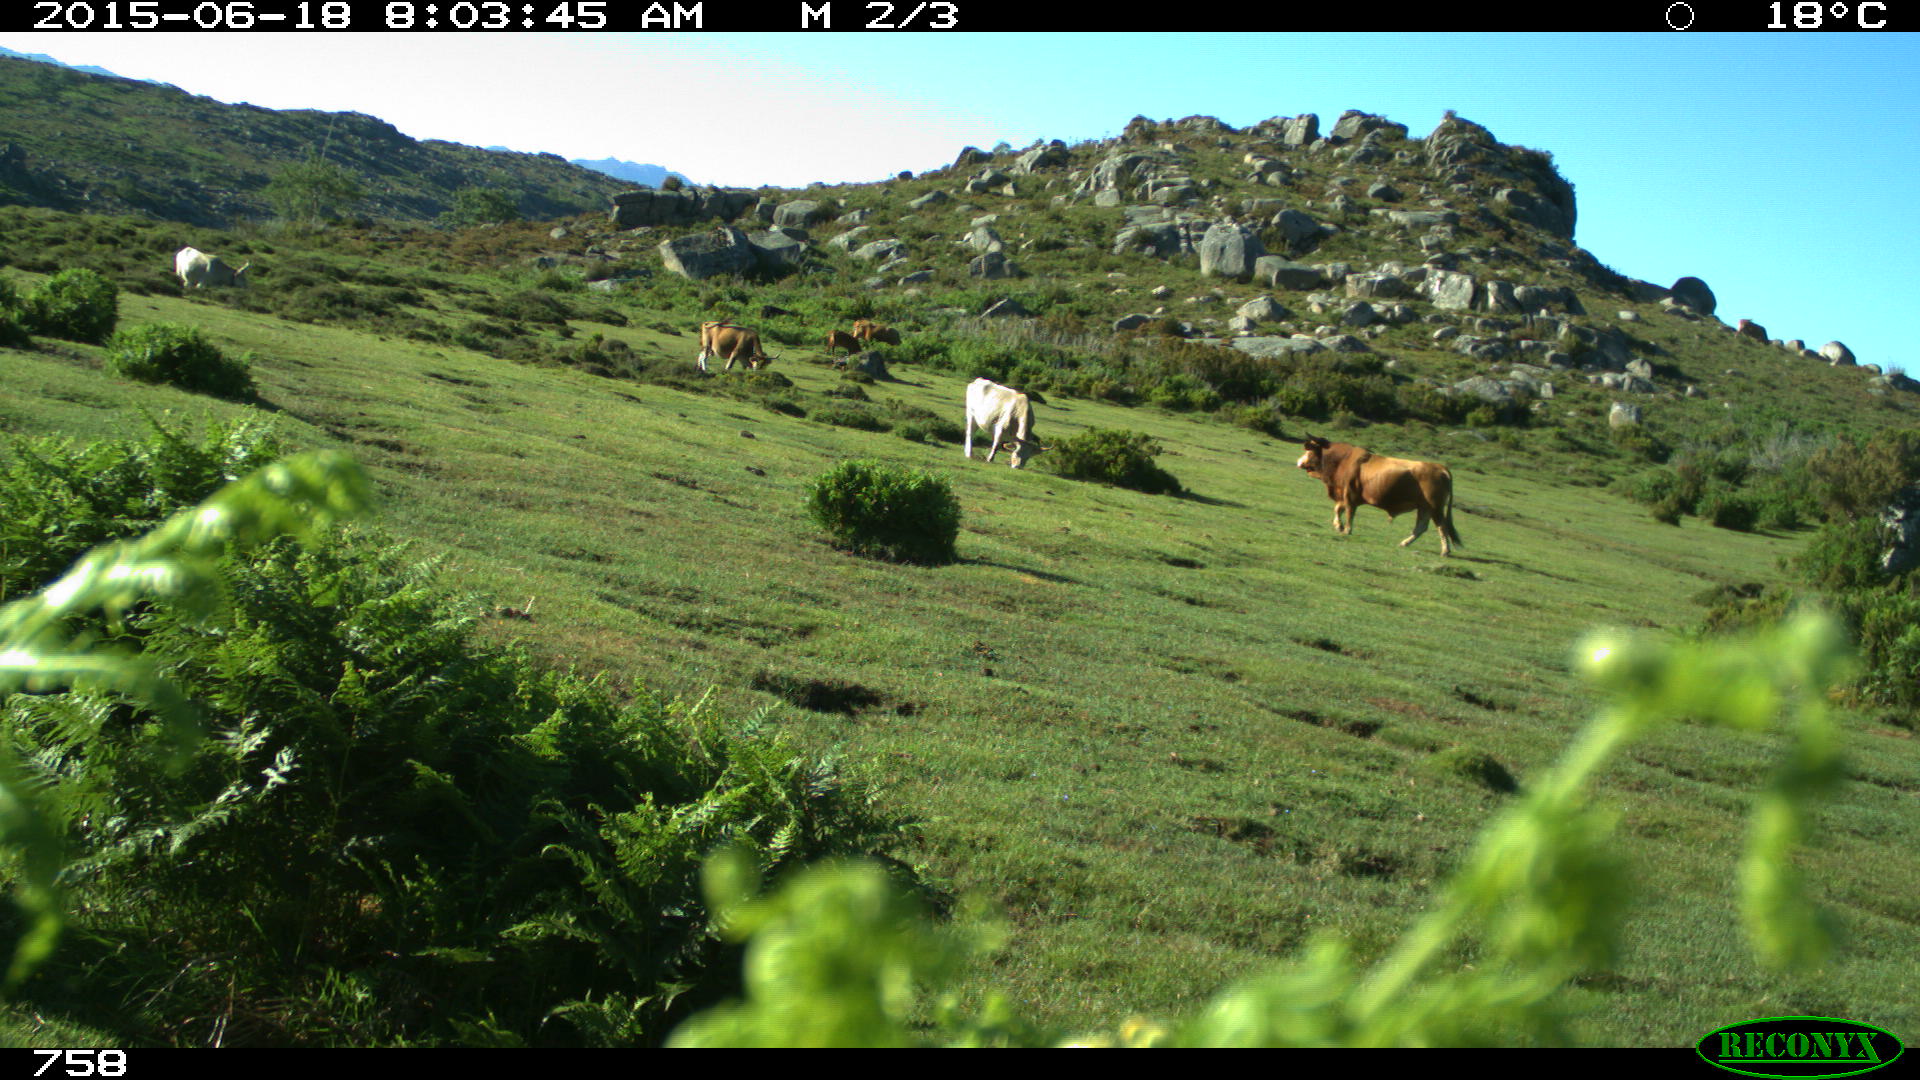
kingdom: Animalia
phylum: Chordata
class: Mammalia
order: Artiodactyla
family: Bovidae
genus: Bos
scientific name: Bos taurus
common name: Domesticated cattle
